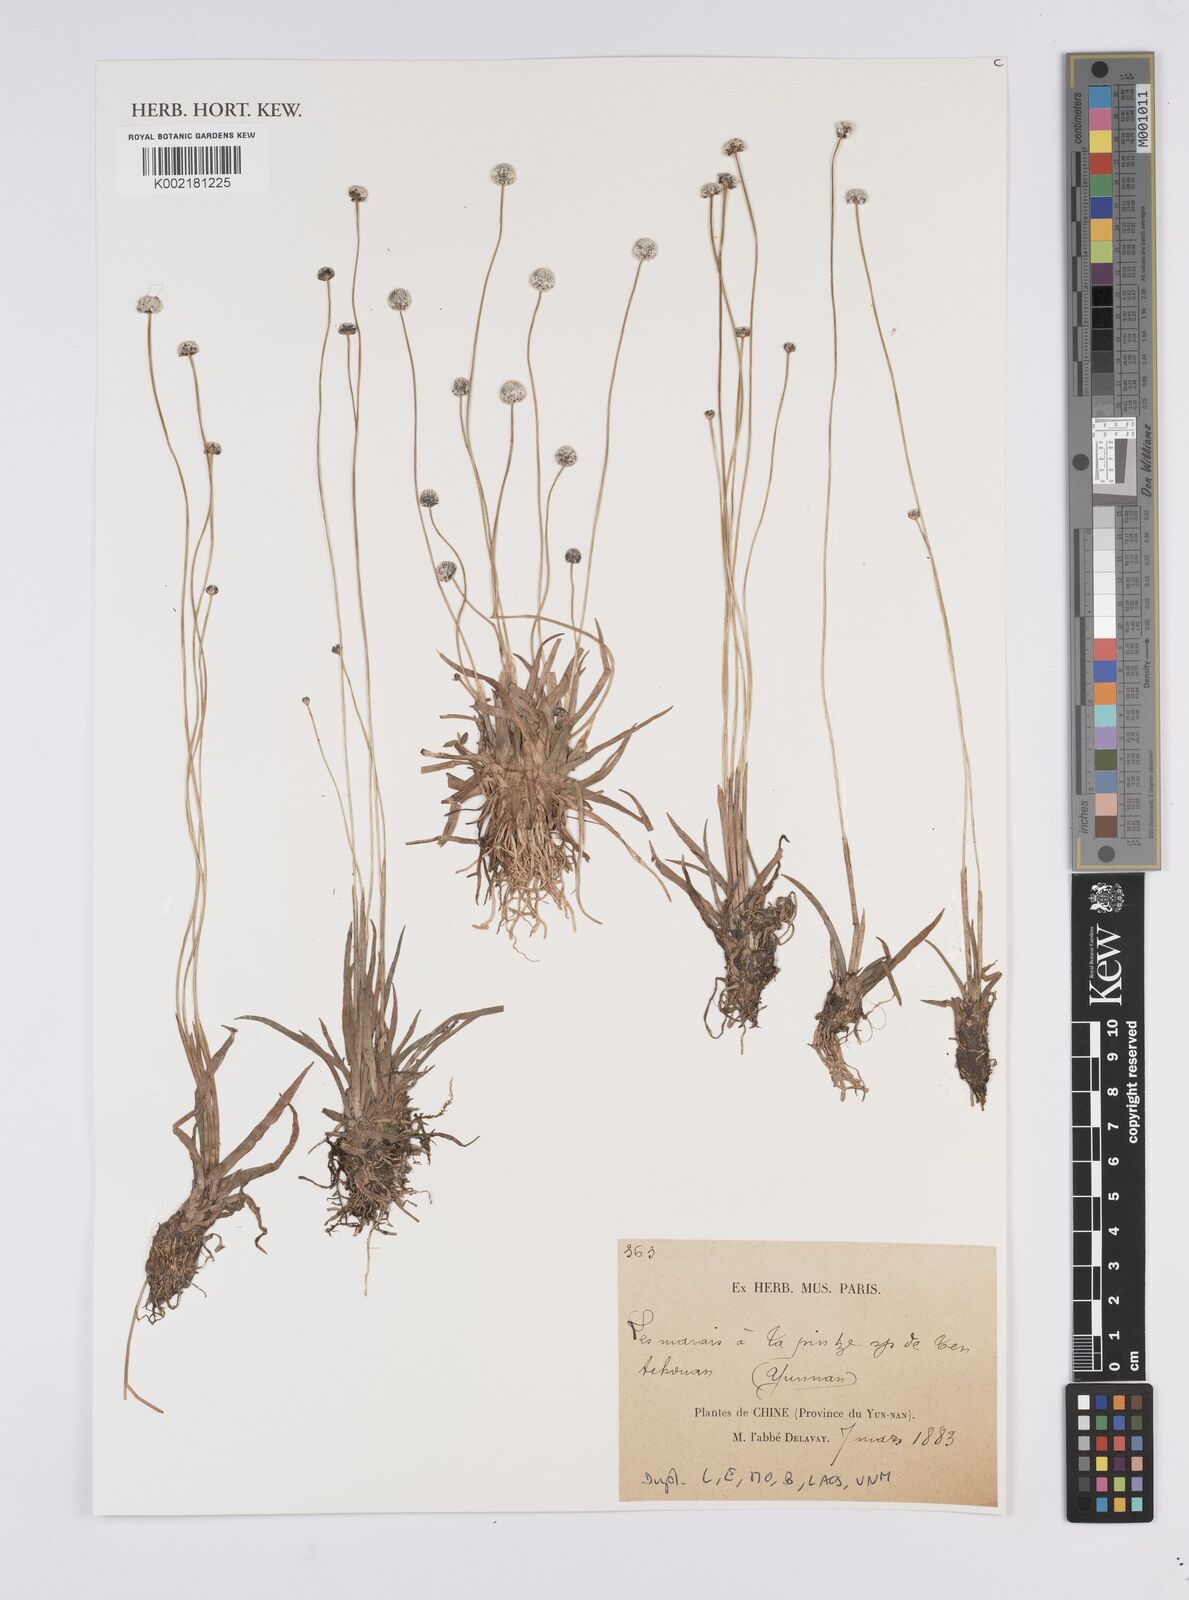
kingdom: Plantae
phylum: Tracheophyta
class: Liliopsida
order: Poales
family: Eriocaulaceae
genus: Eriocaulon
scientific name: Eriocaulon
